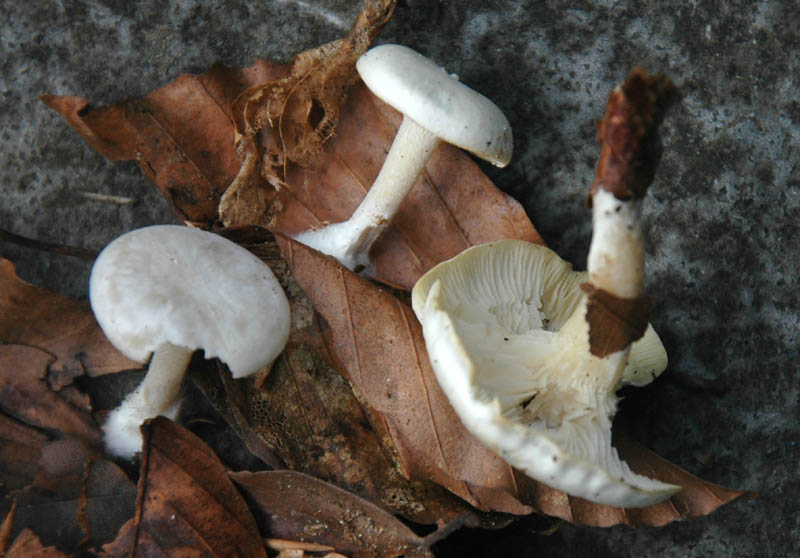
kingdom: Fungi
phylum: Basidiomycota
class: Agaricomycetes
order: Agaricales
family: Tricholomataceae
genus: Leucocybe
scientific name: Leucocybe candicans
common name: kridt-tragthat
